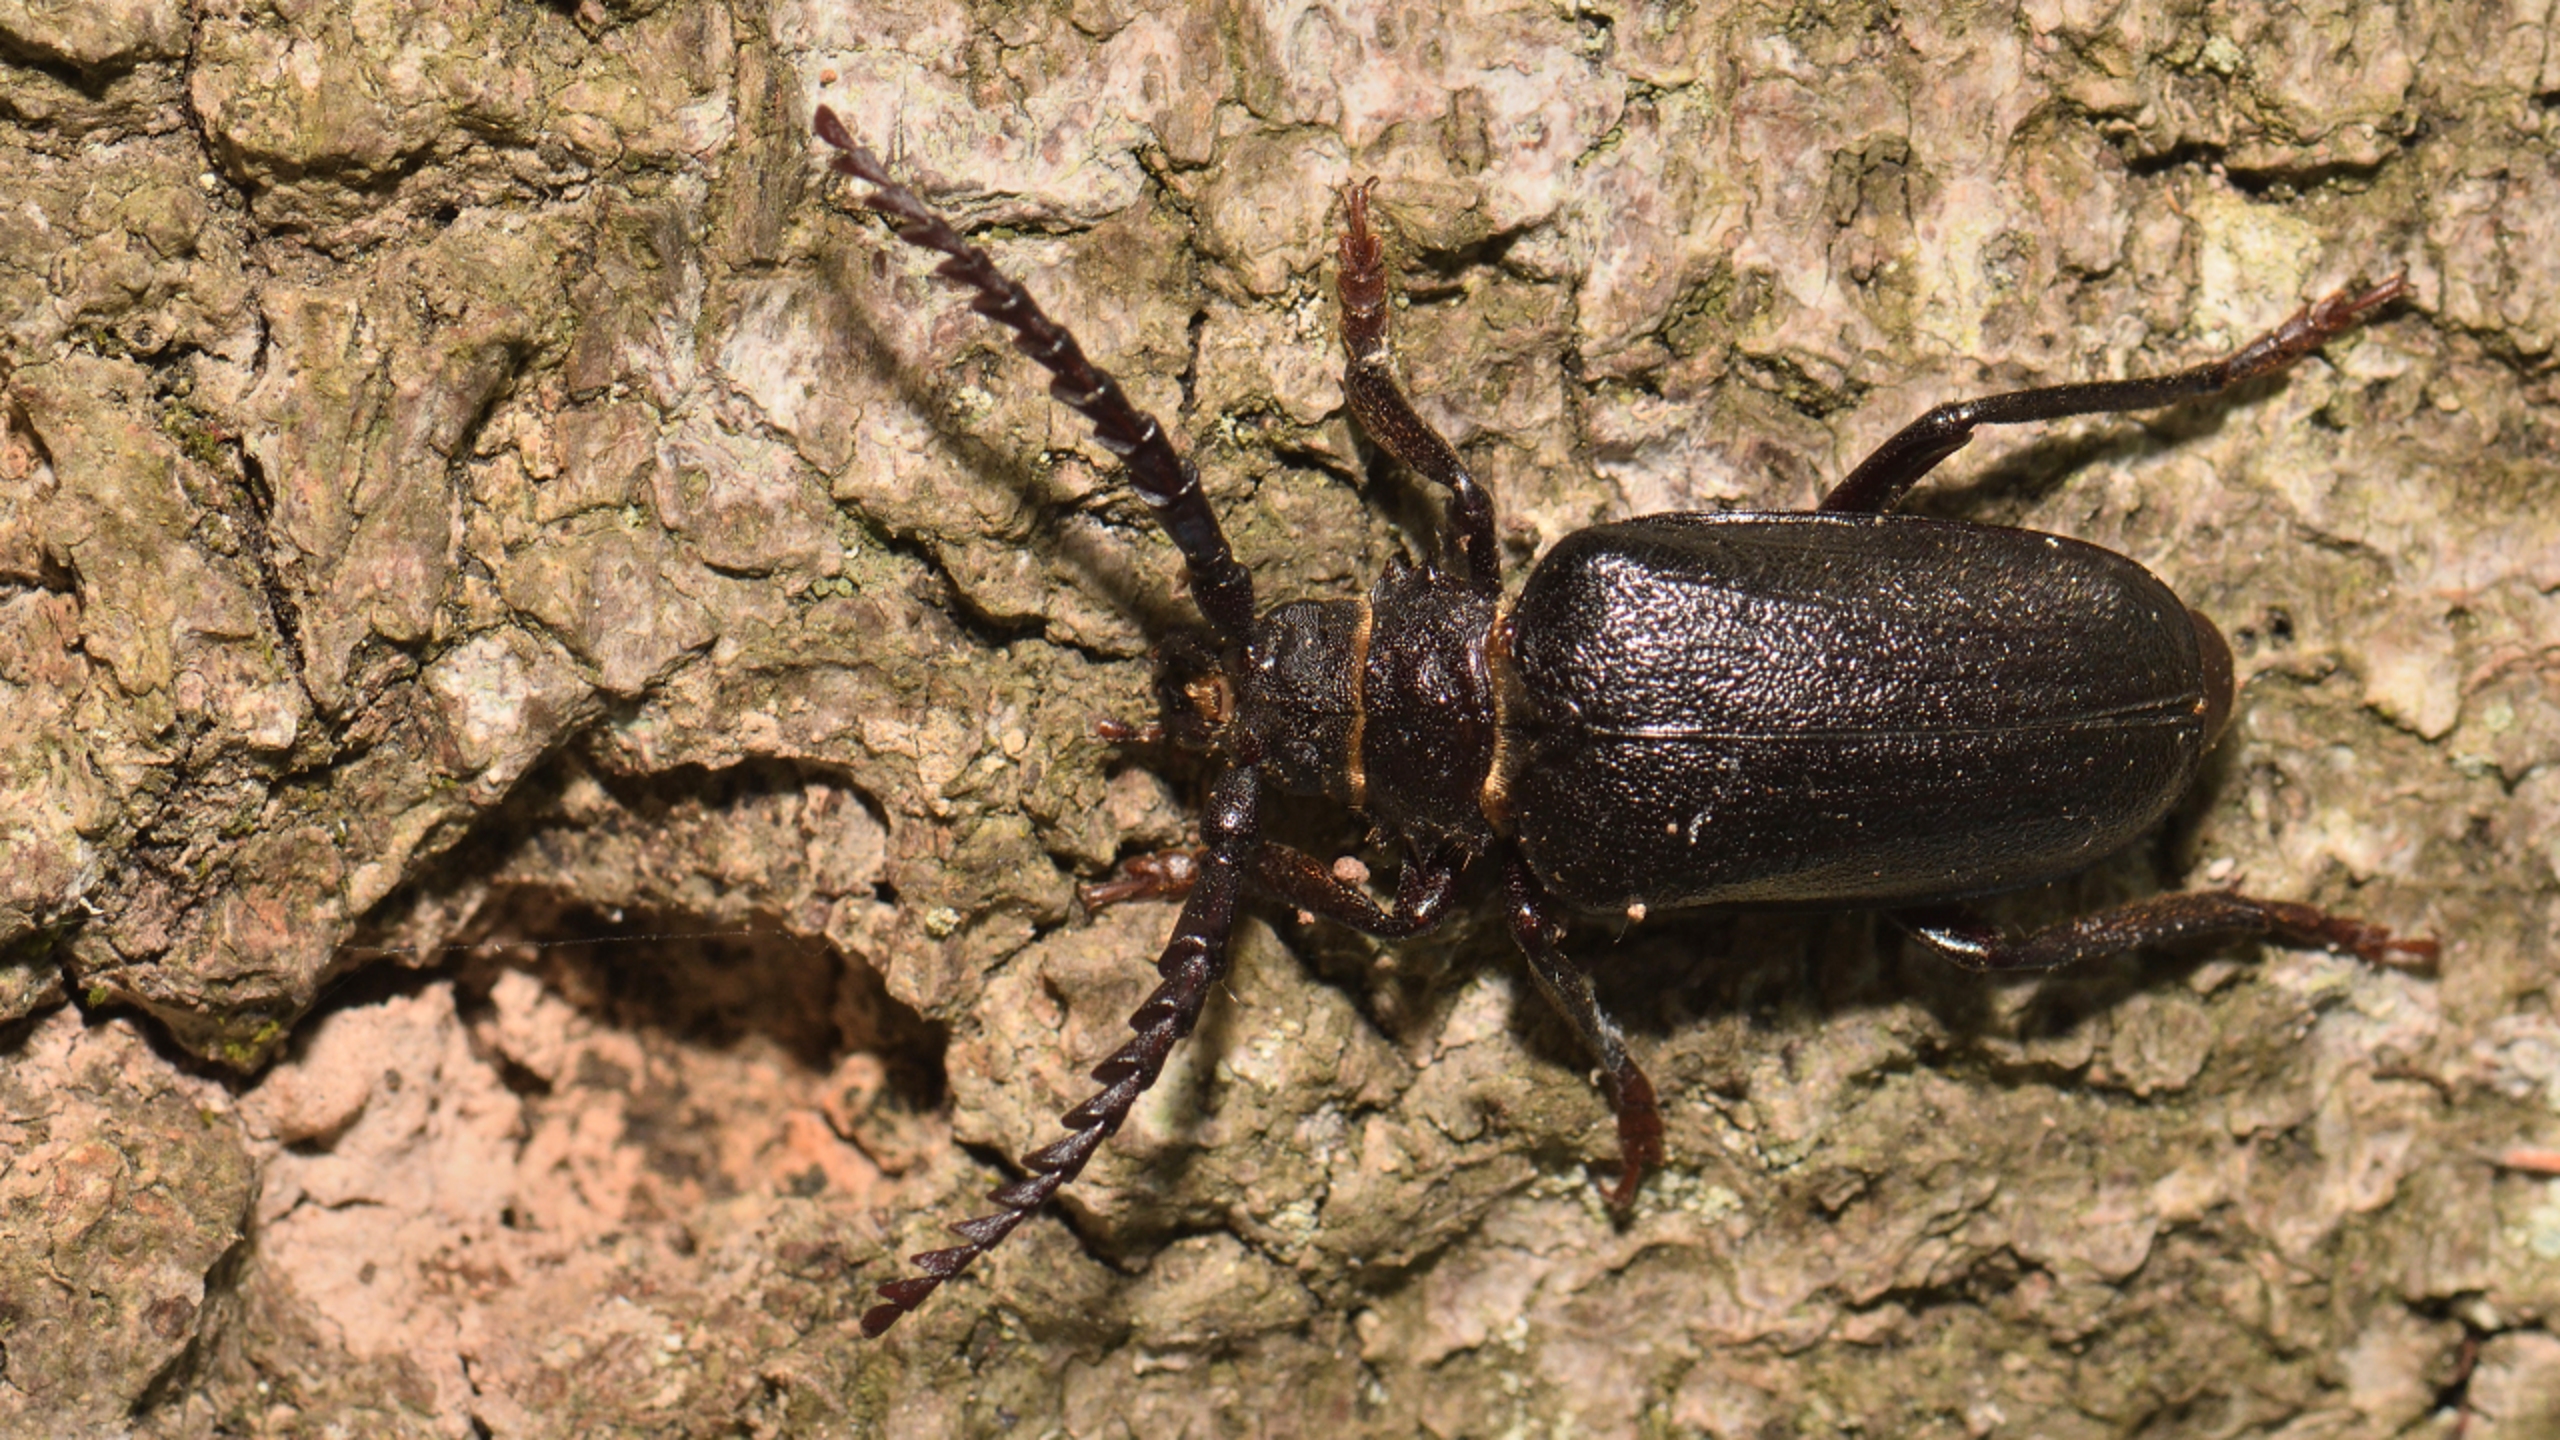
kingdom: Animalia
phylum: Arthropoda
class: Insecta
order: Coleoptera
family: Cerambycidae
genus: Prionus
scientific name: Prionus coriarius
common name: Garver
